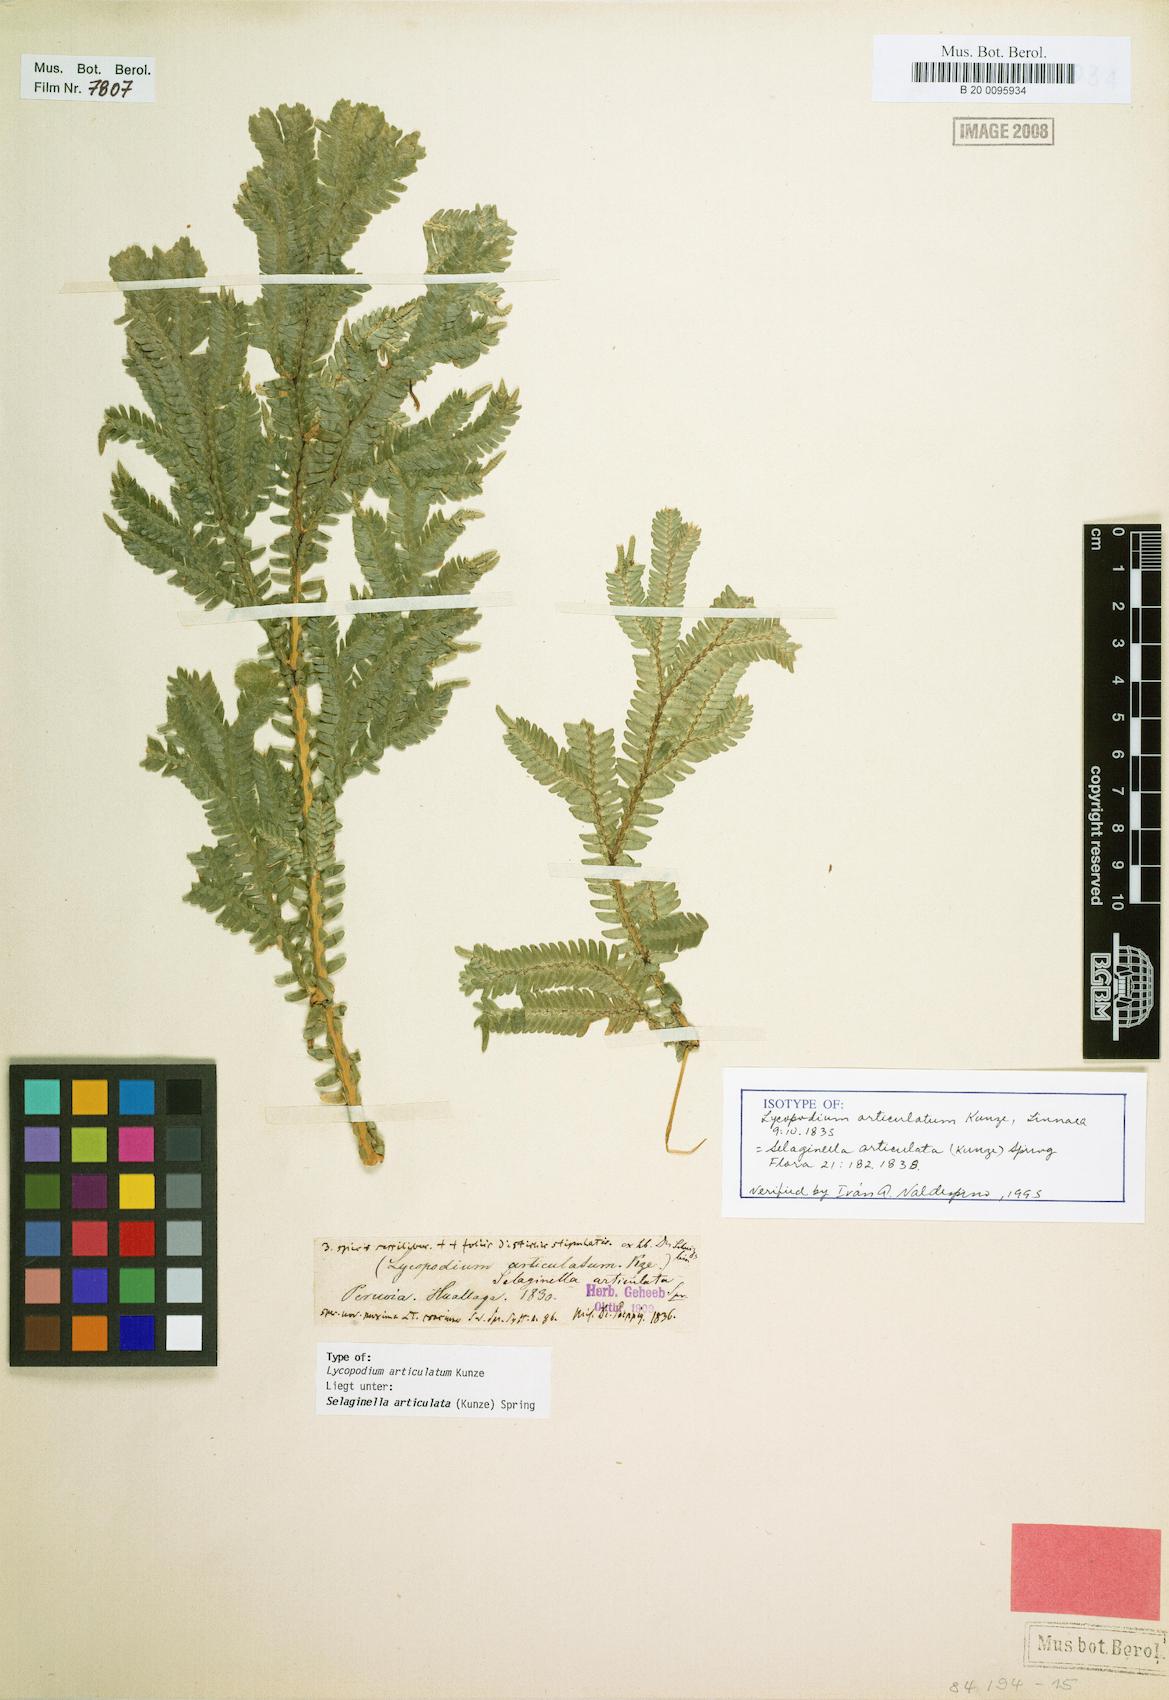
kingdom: Plantae
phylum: Tracheophyta
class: Lycopodiopsida
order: Selaginellales
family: Selaginellaceae
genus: Selaginella
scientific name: Selaginella articulata
